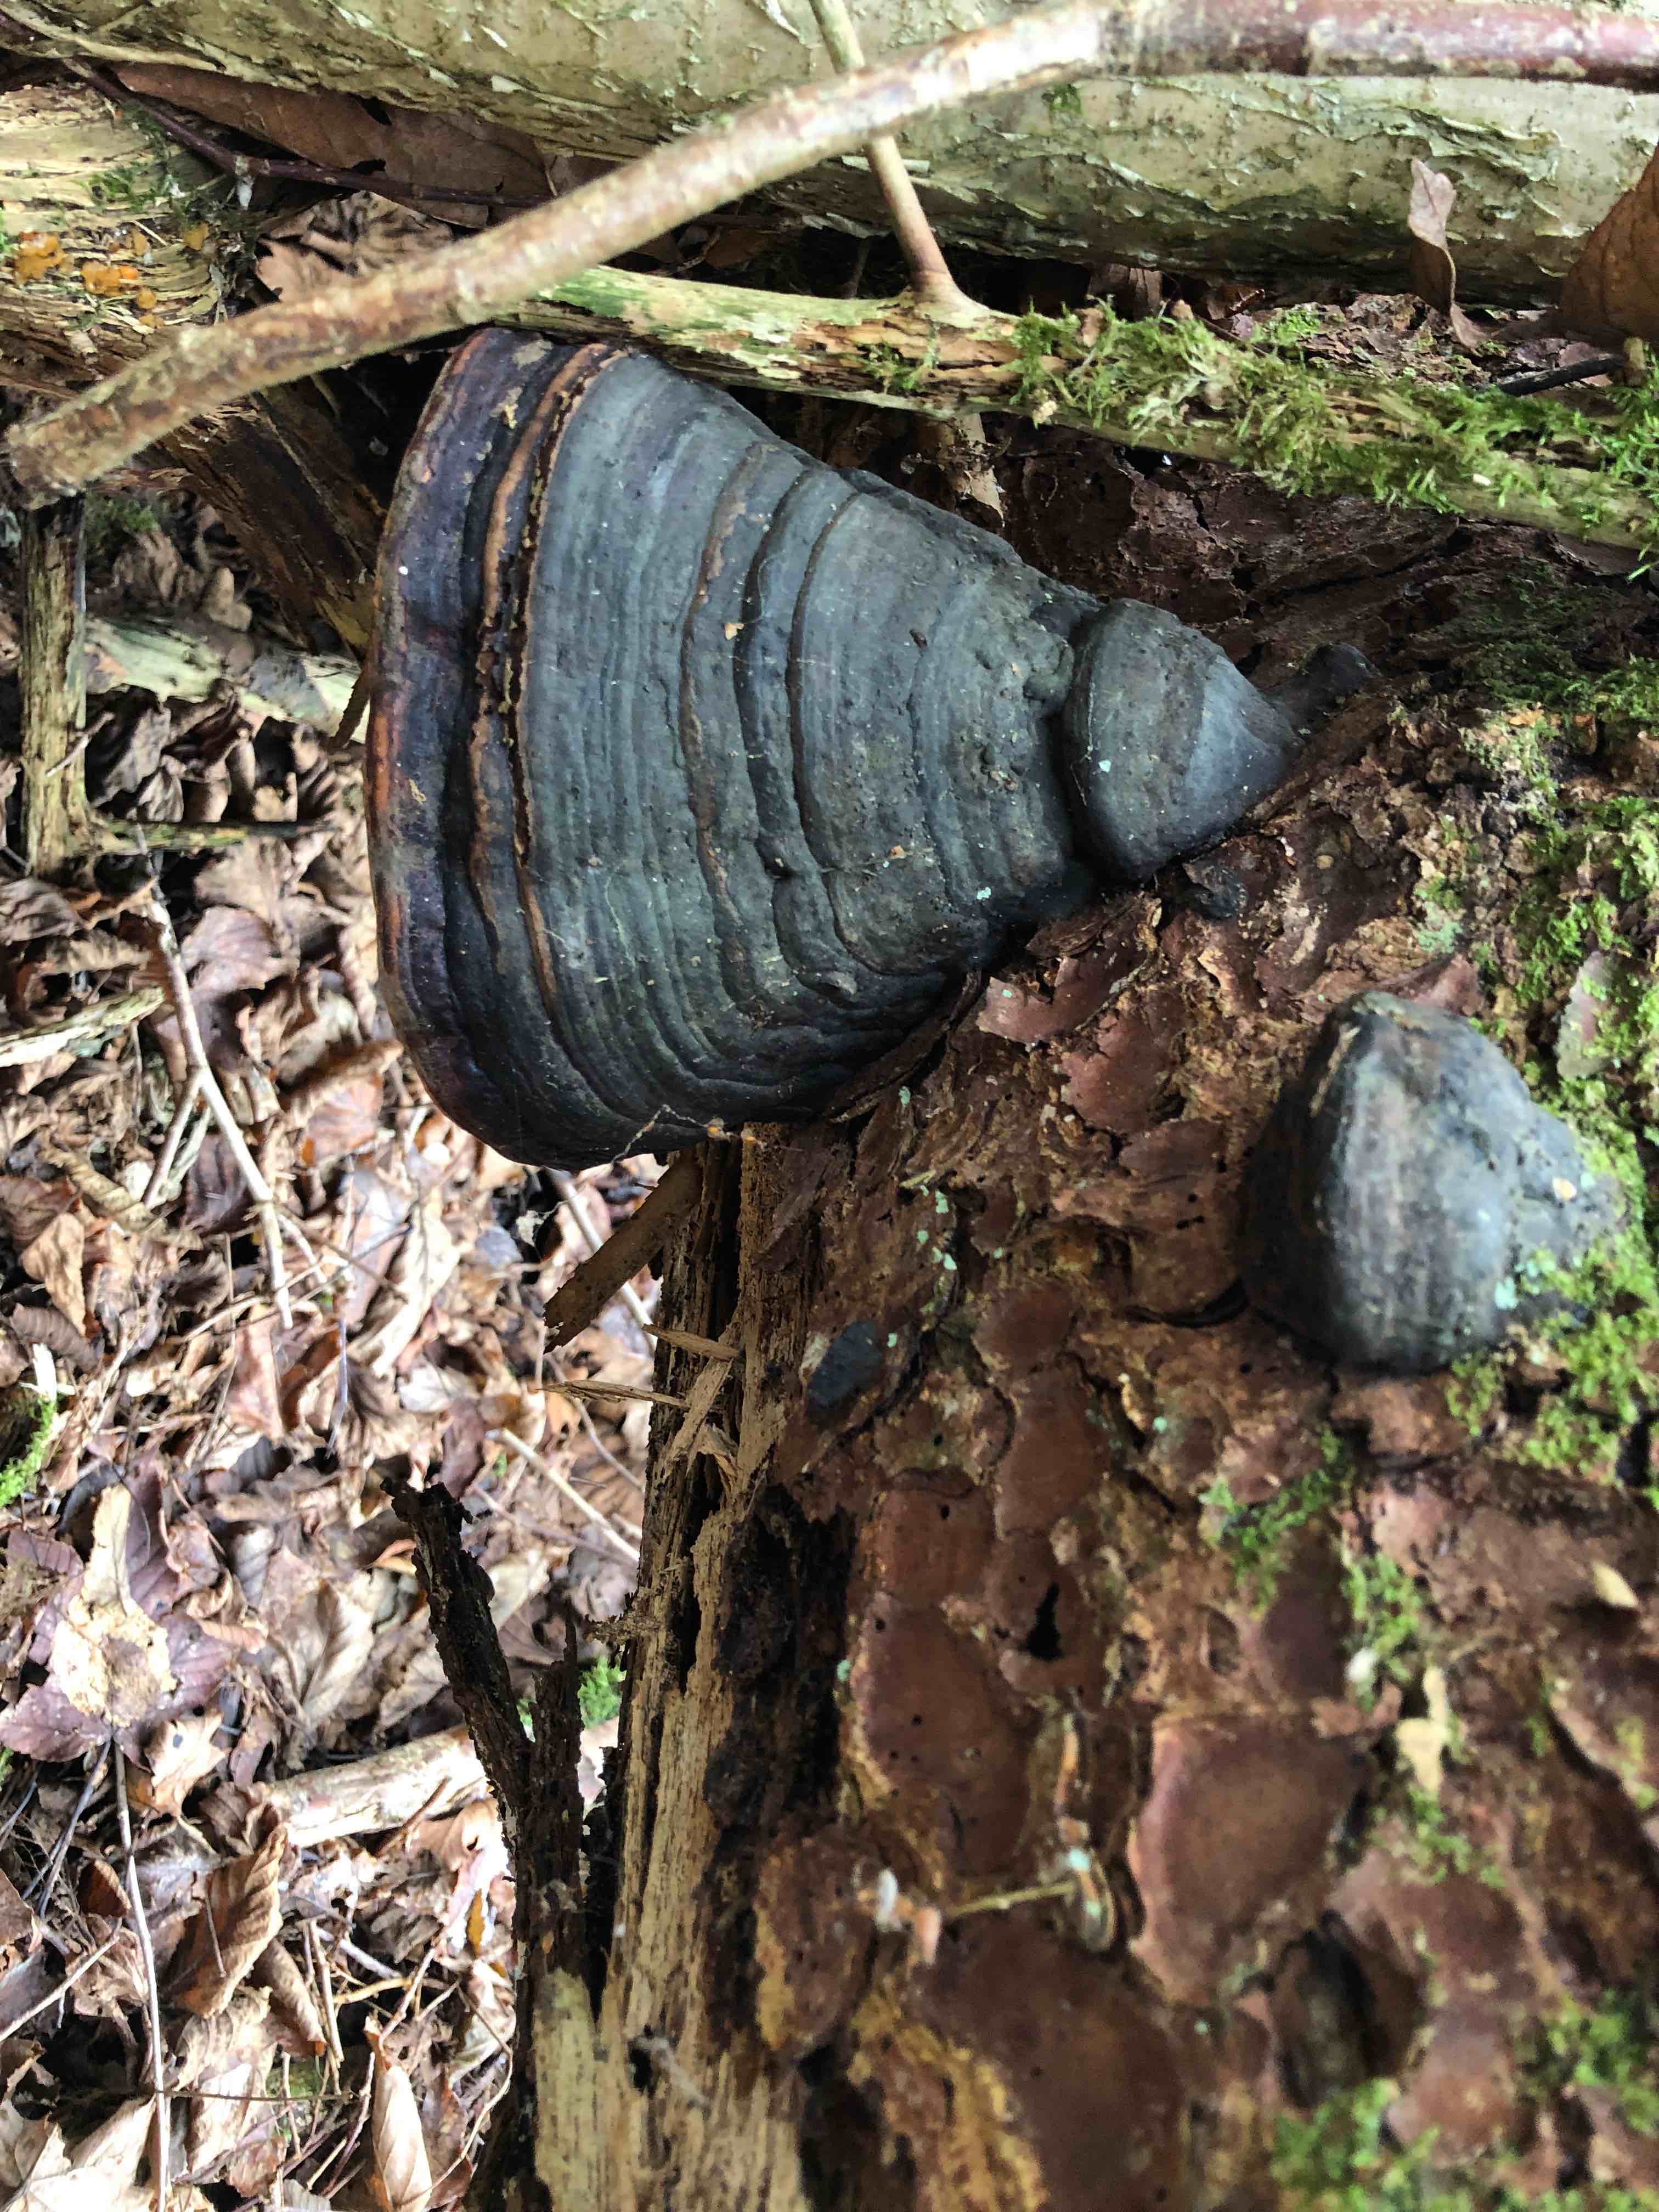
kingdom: Fungi
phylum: Basidiomycota
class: Agaricomycetes
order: Polyporales
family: Fomitopsidaceae
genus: Fomitopsis
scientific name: Fomitopsis pinicola
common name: randbæltet hovporesvamp
